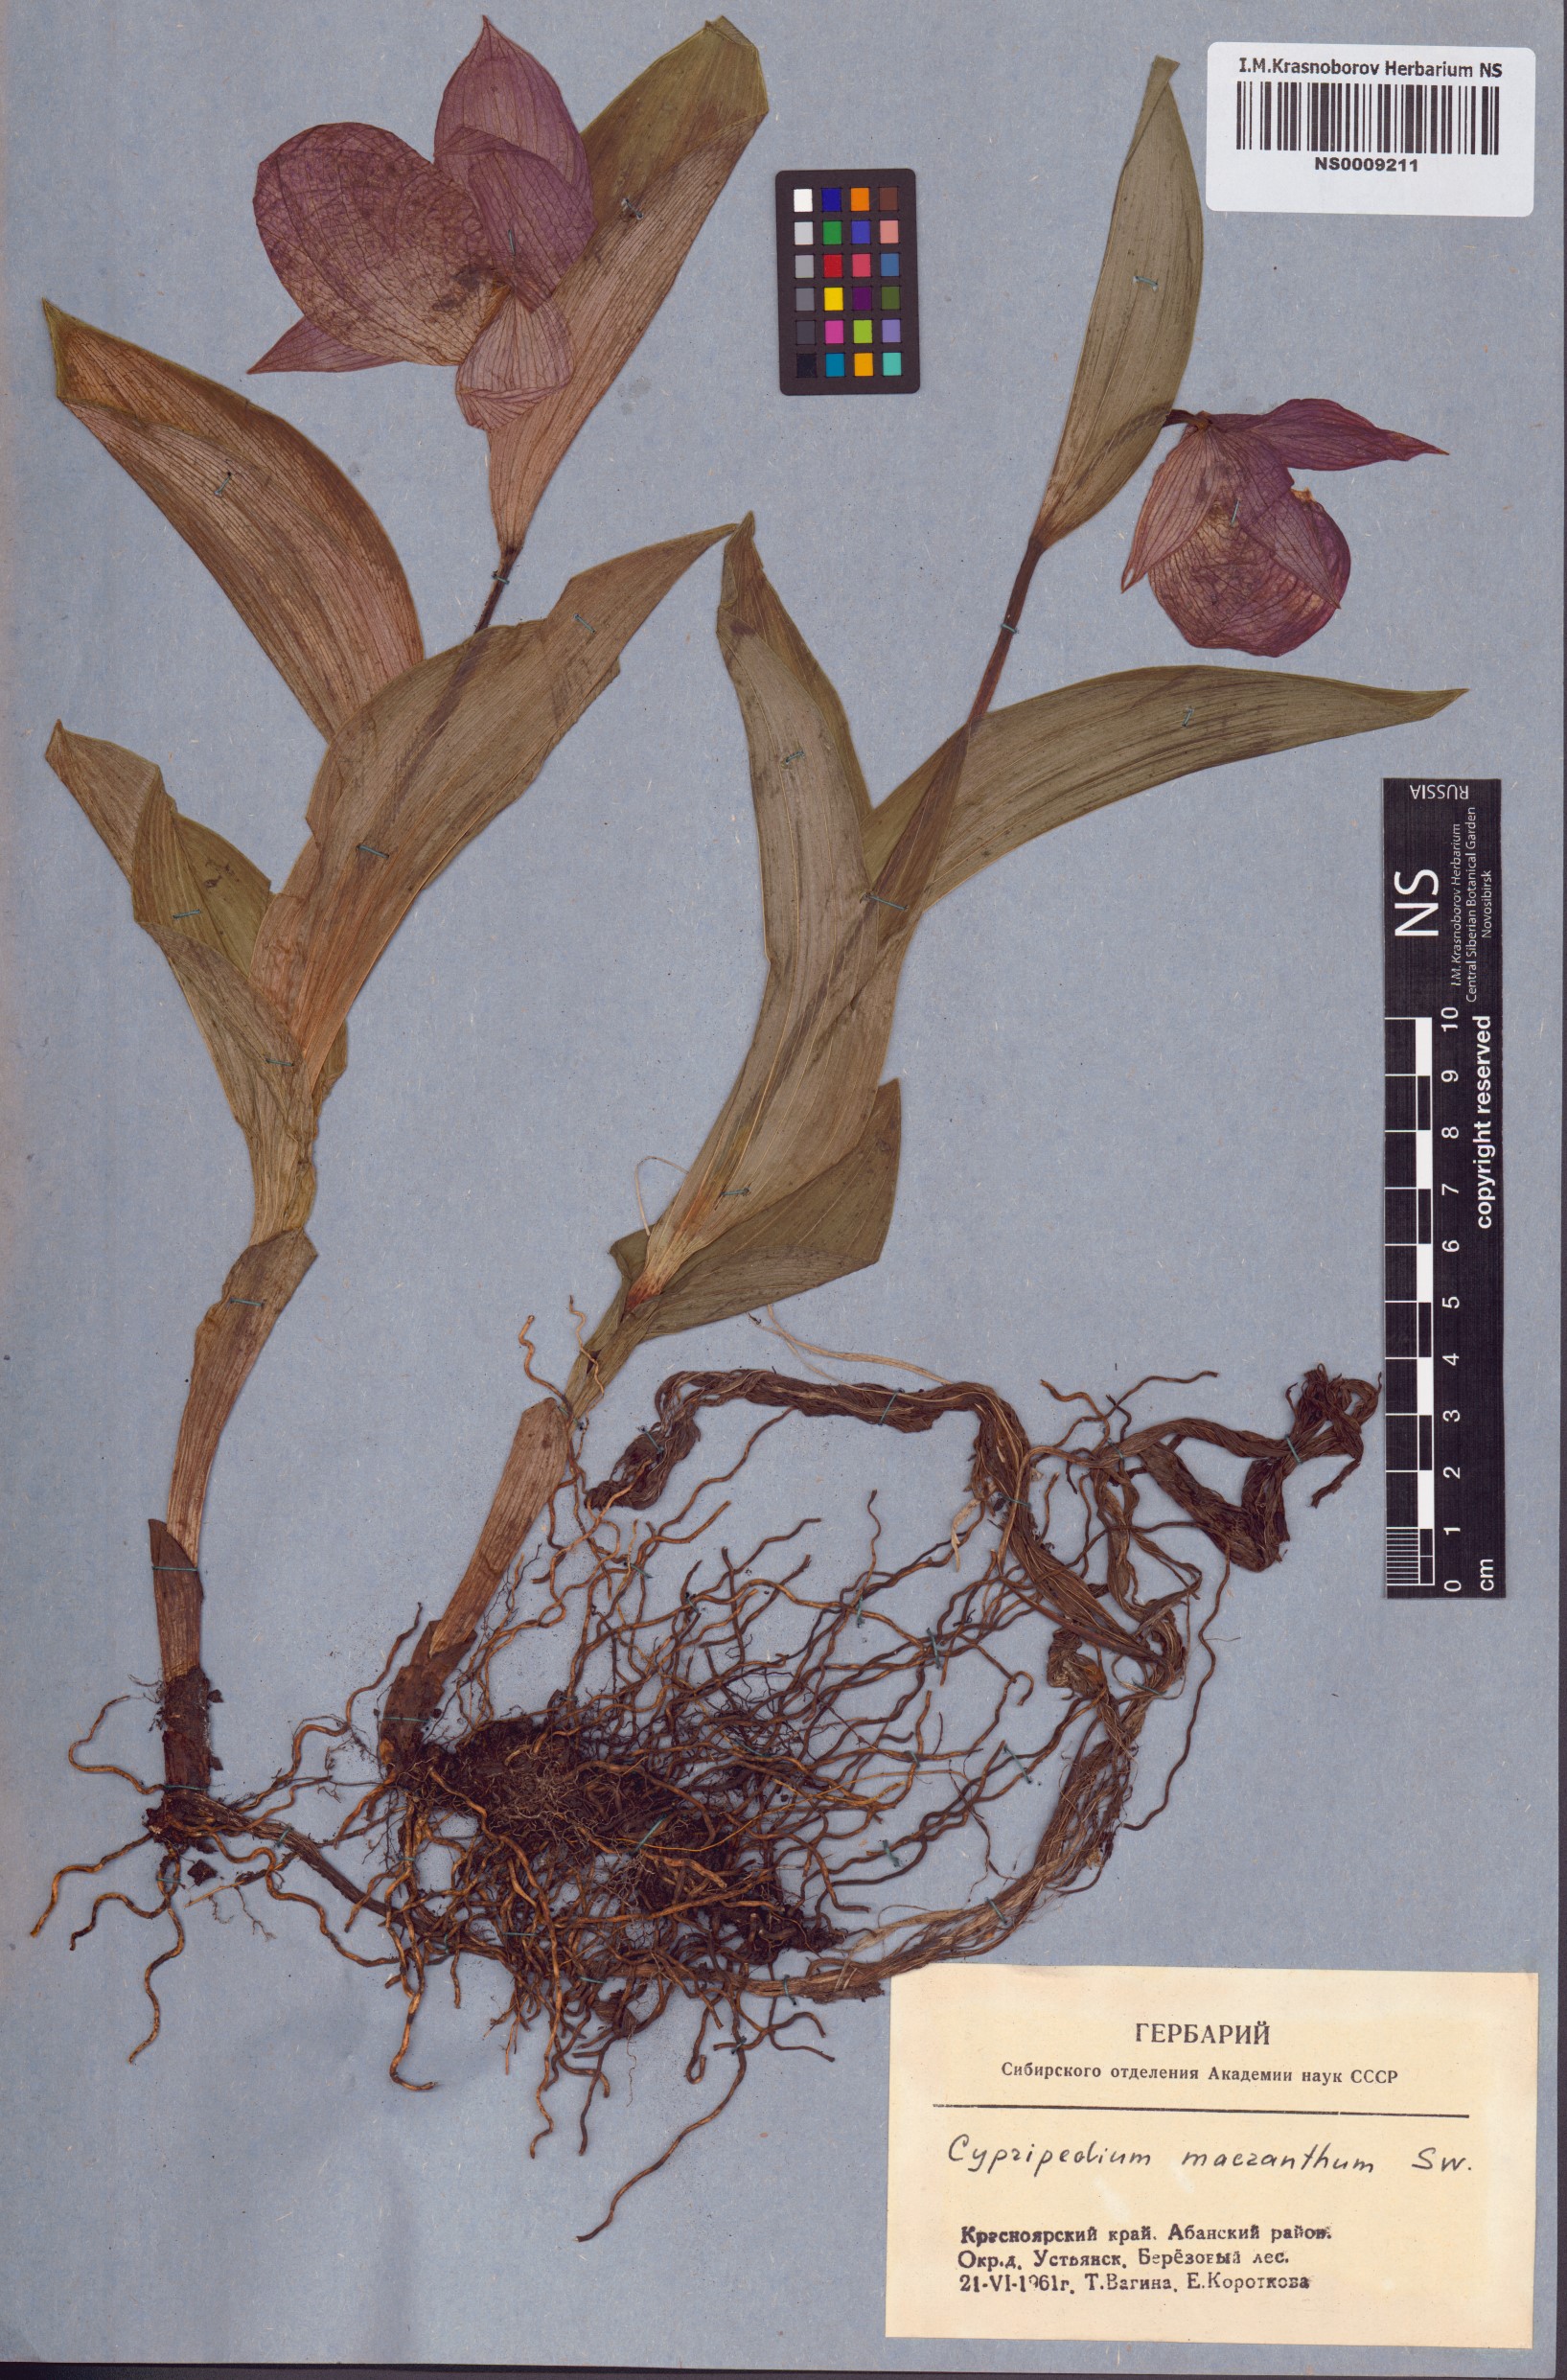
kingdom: Plantae
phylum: Tracheophyta
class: Liliopsida
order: Asparagales
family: Orchidaceae
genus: Cypripedium
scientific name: Cypripedium macranthos
